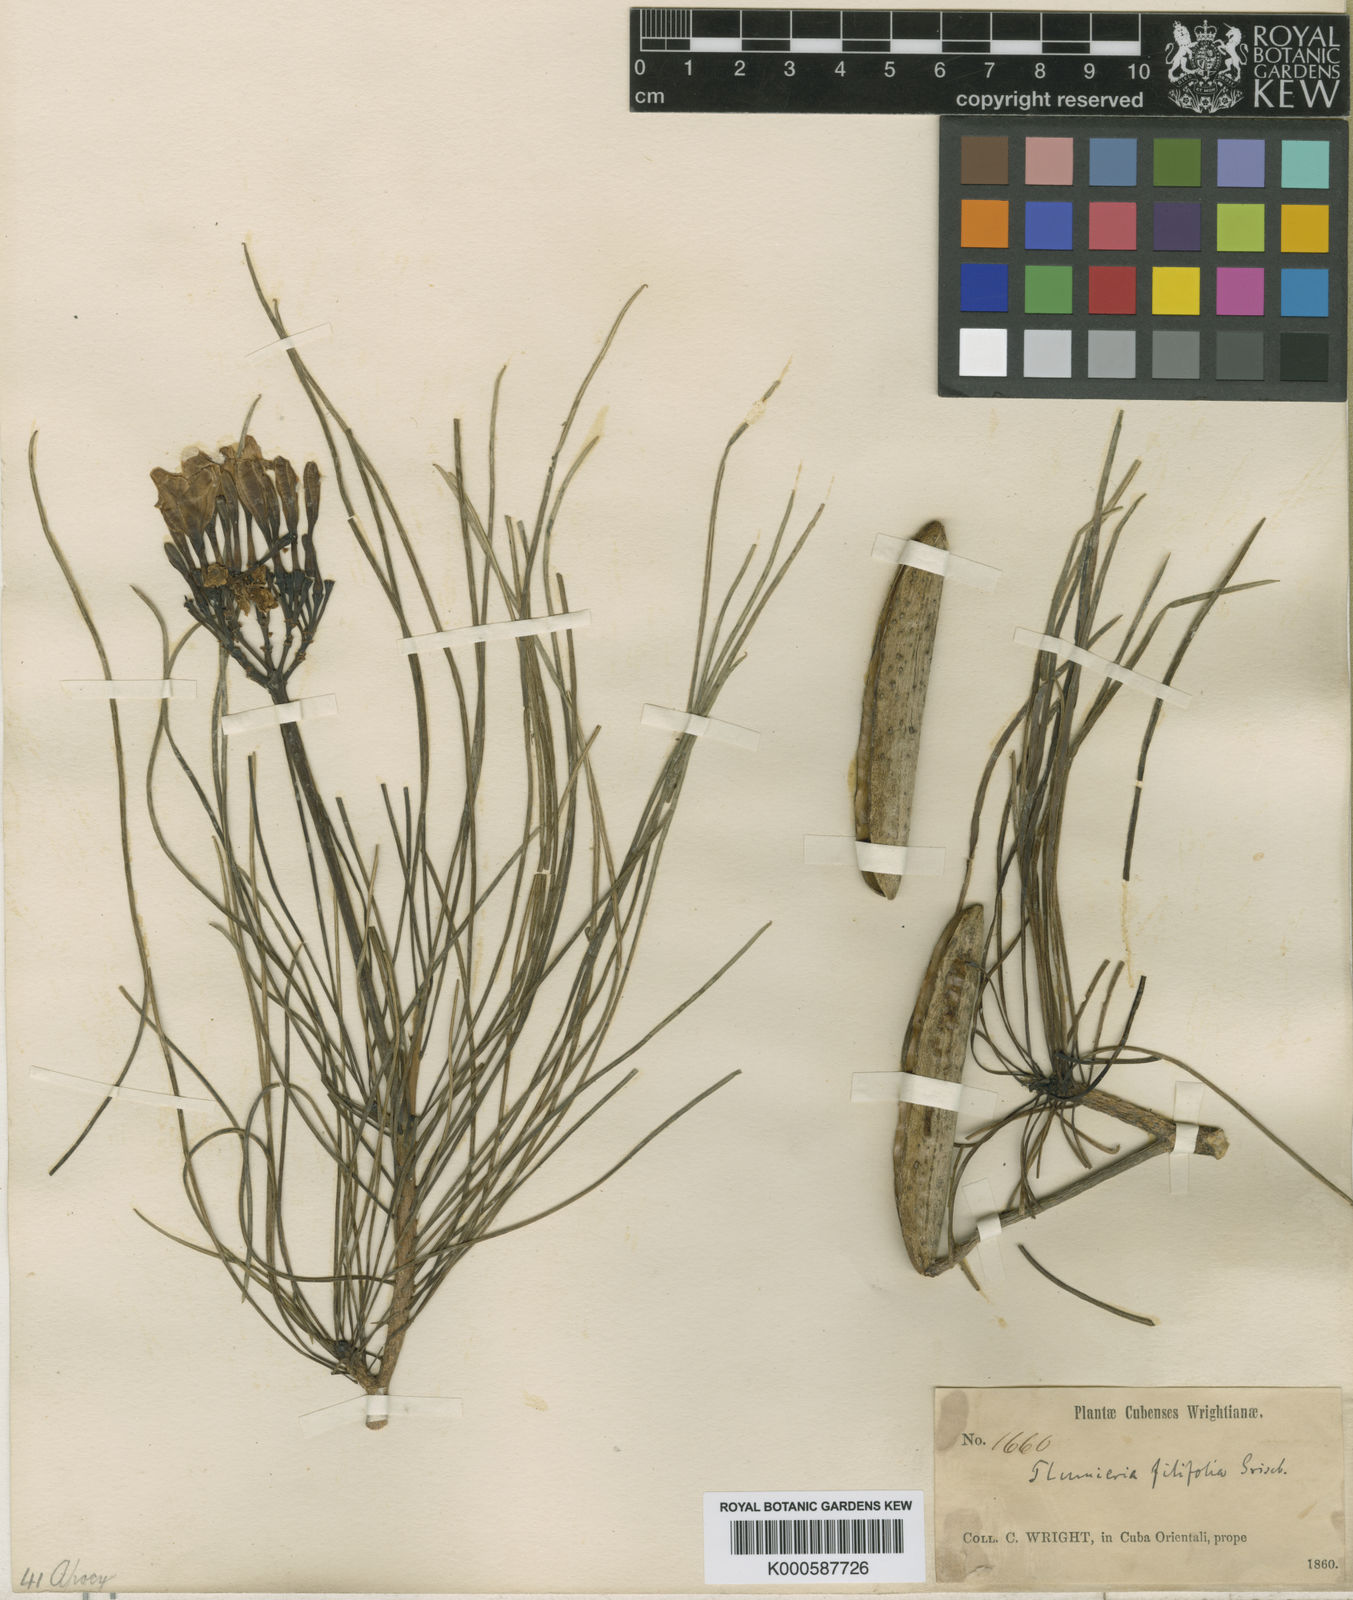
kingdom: Plantae
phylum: Tracheophyta
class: Magnoliopsida
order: Gentianales
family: Apocynaceae
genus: Plumeria
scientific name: Plumeria filifolia
